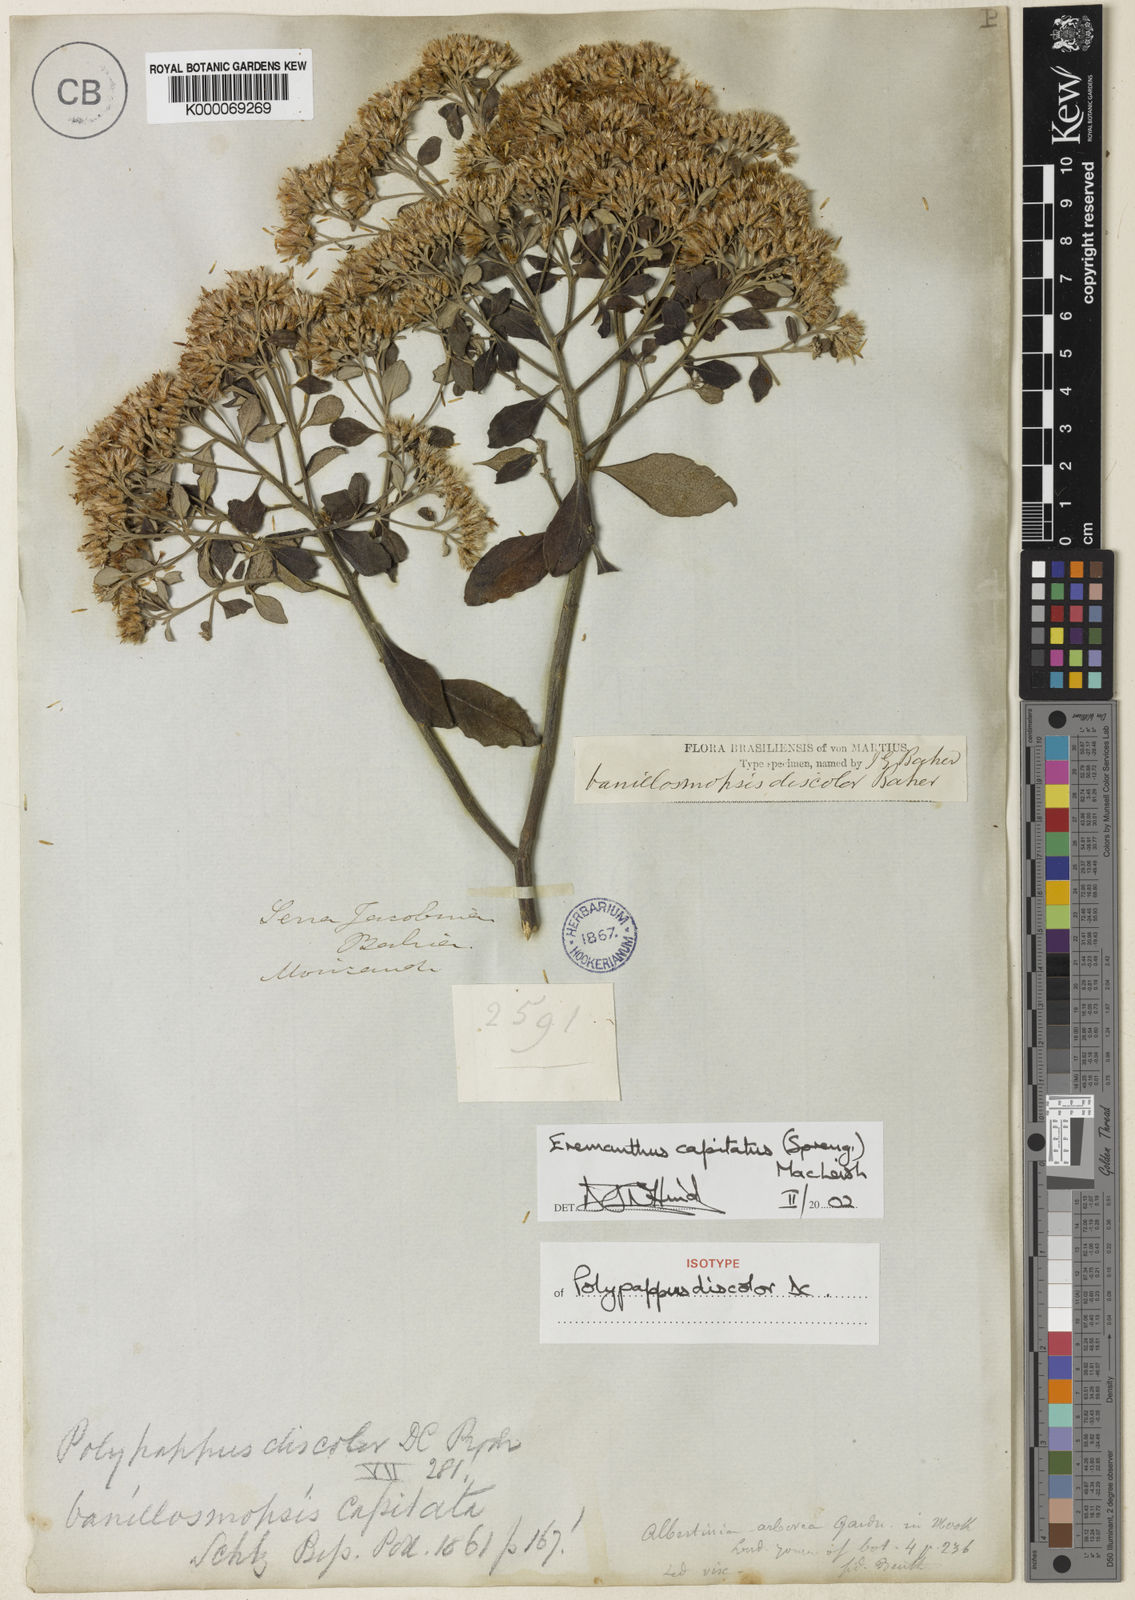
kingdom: Plantae
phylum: Tracheophyta
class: Magnoliopsida
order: Asterales
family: Asteraceae
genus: Eremanthus
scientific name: Eremanthus capitatus
